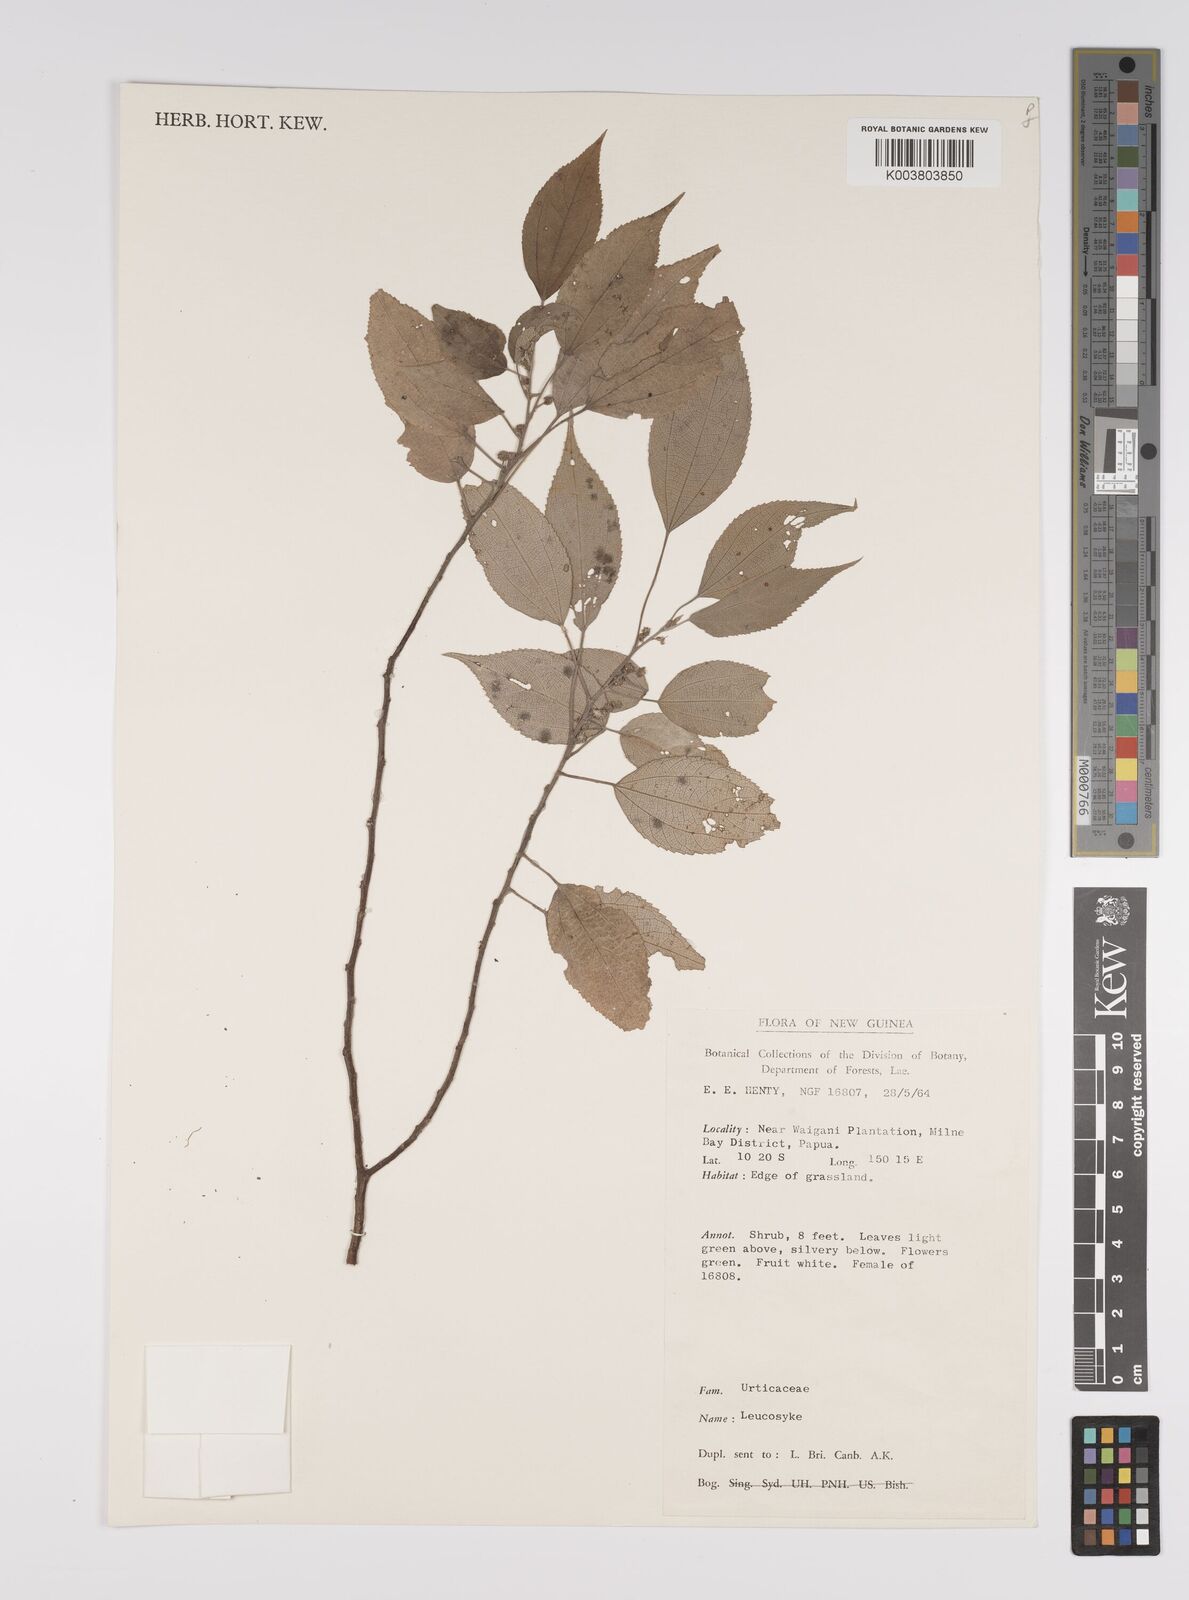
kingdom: Plantae
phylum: Tracheophyta
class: Magnoliopsida
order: Rosales
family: Urticaceae
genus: Pipturus
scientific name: Pipturus argenteus
